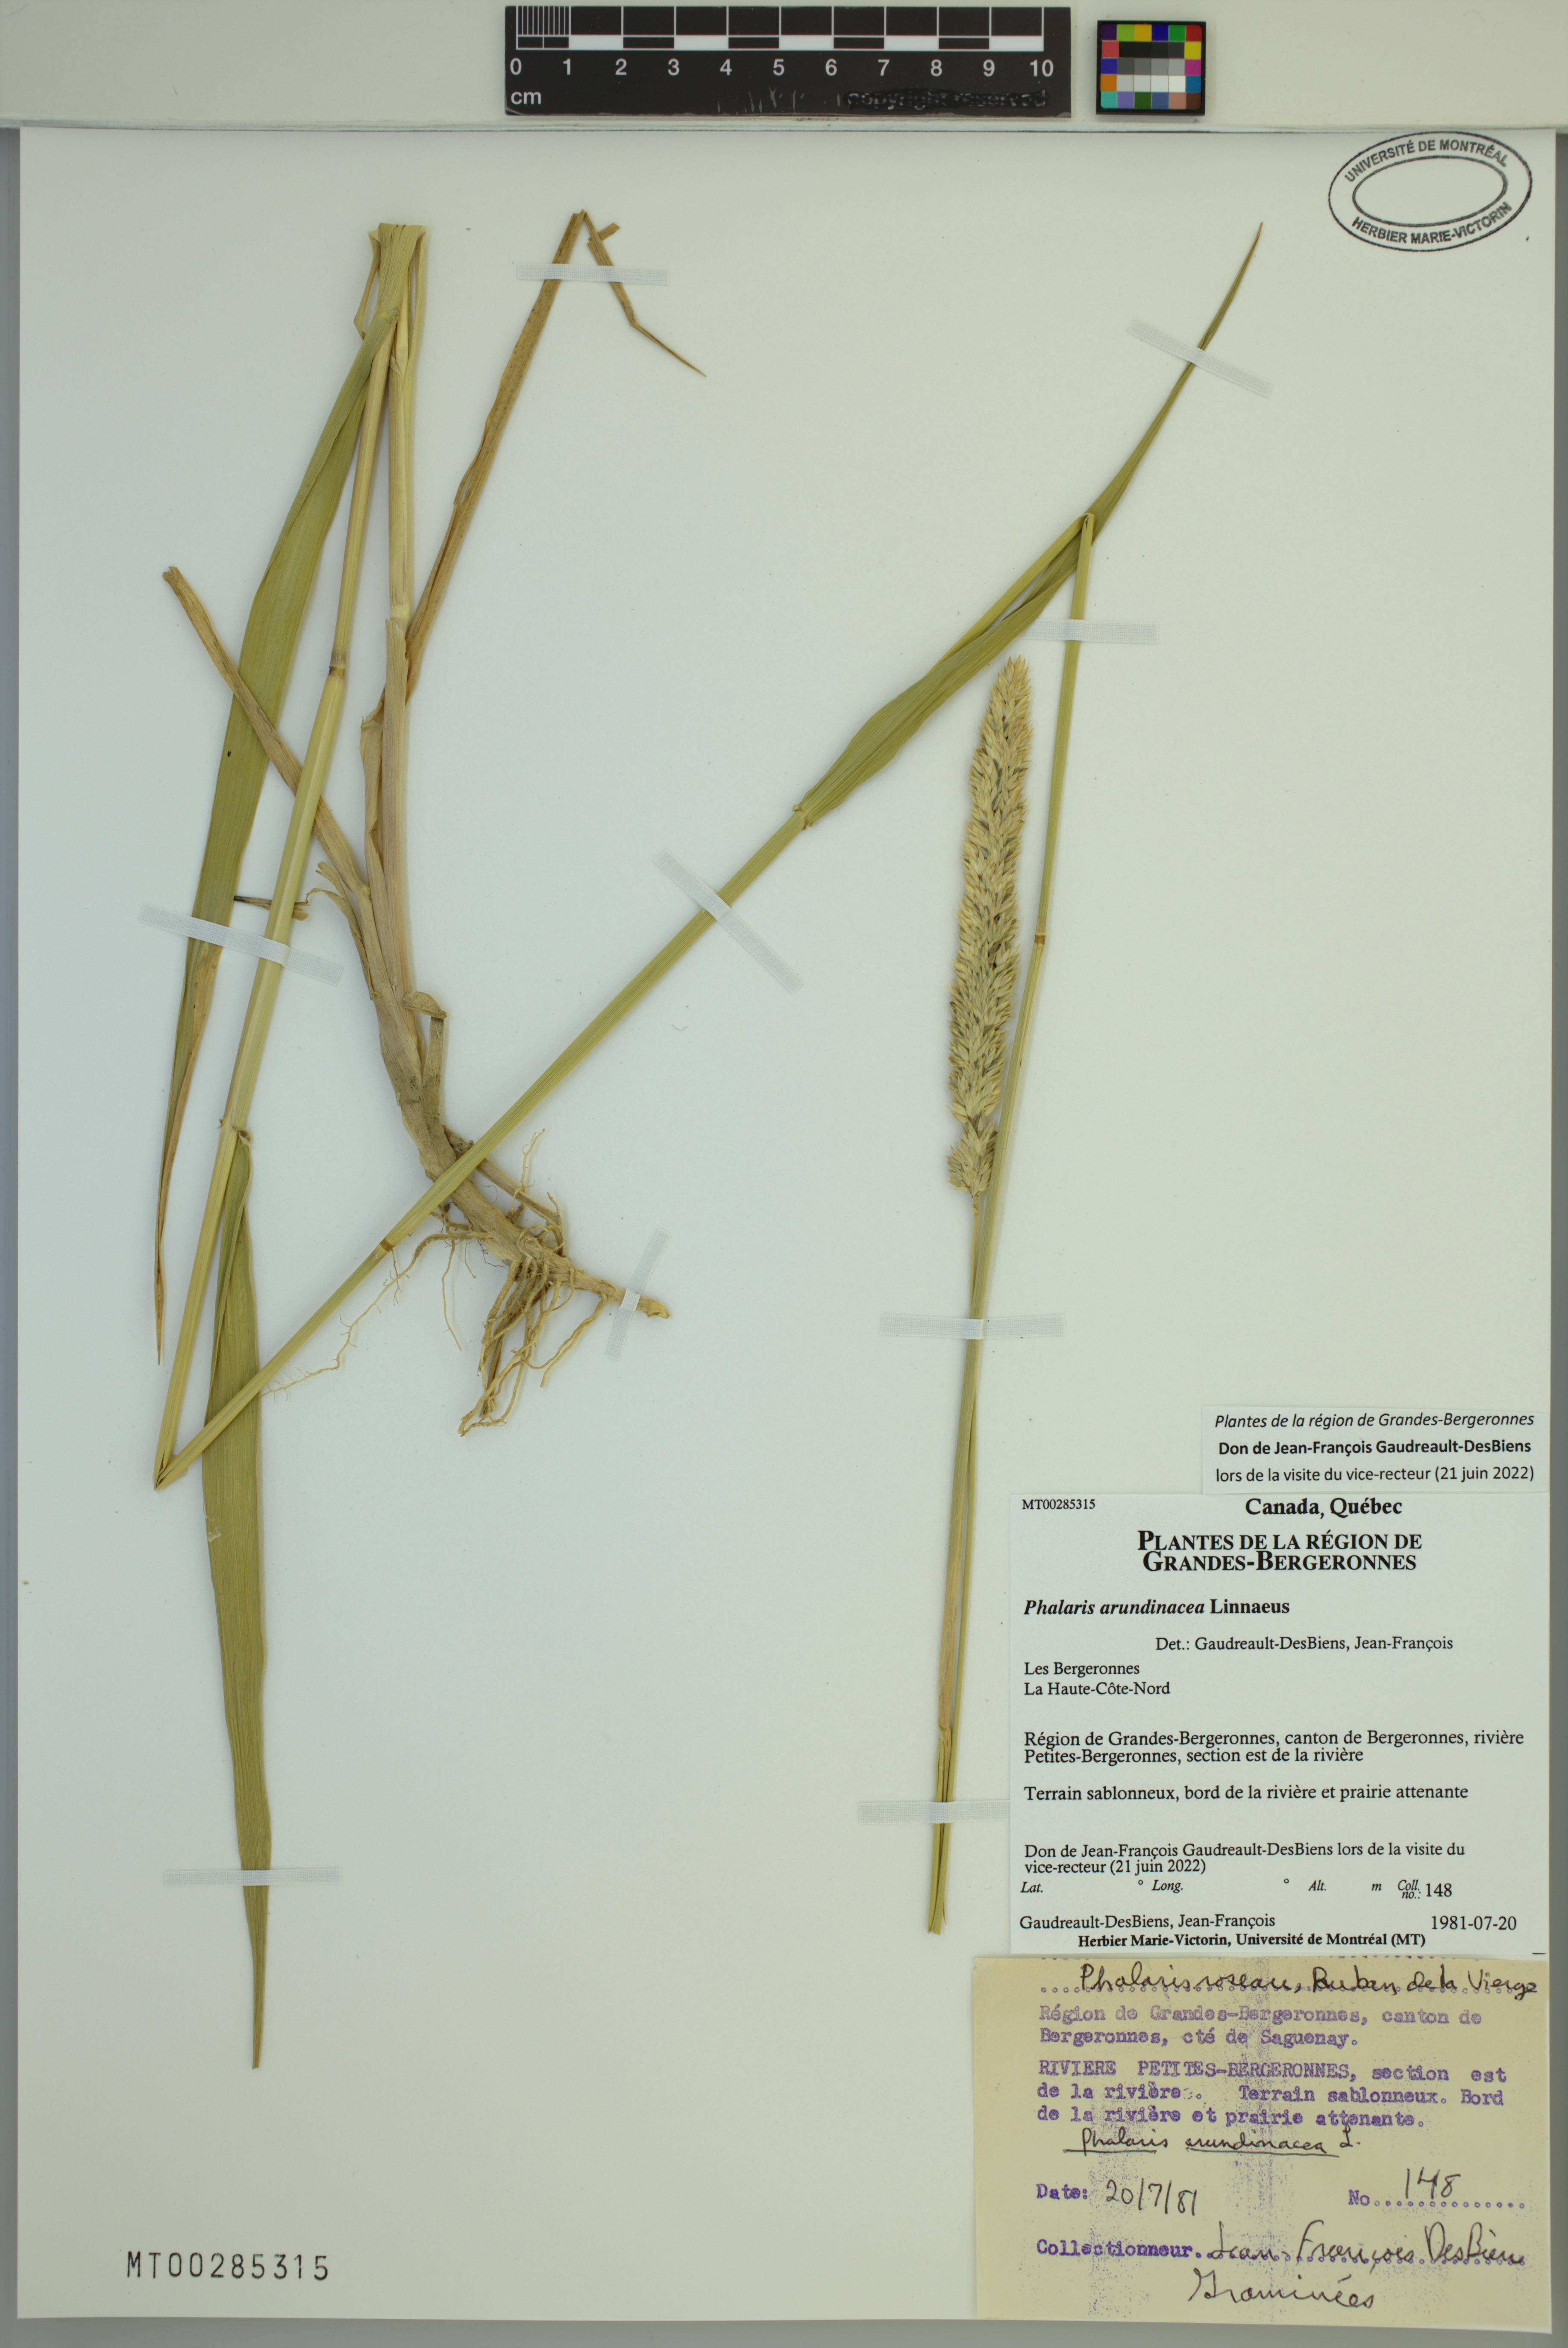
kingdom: Plantae
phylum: Tracheophyta
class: Liliopsida
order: Poales
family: Poaceae
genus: Phalaris
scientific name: Phalaris arundinacea
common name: Reed canary-grass
